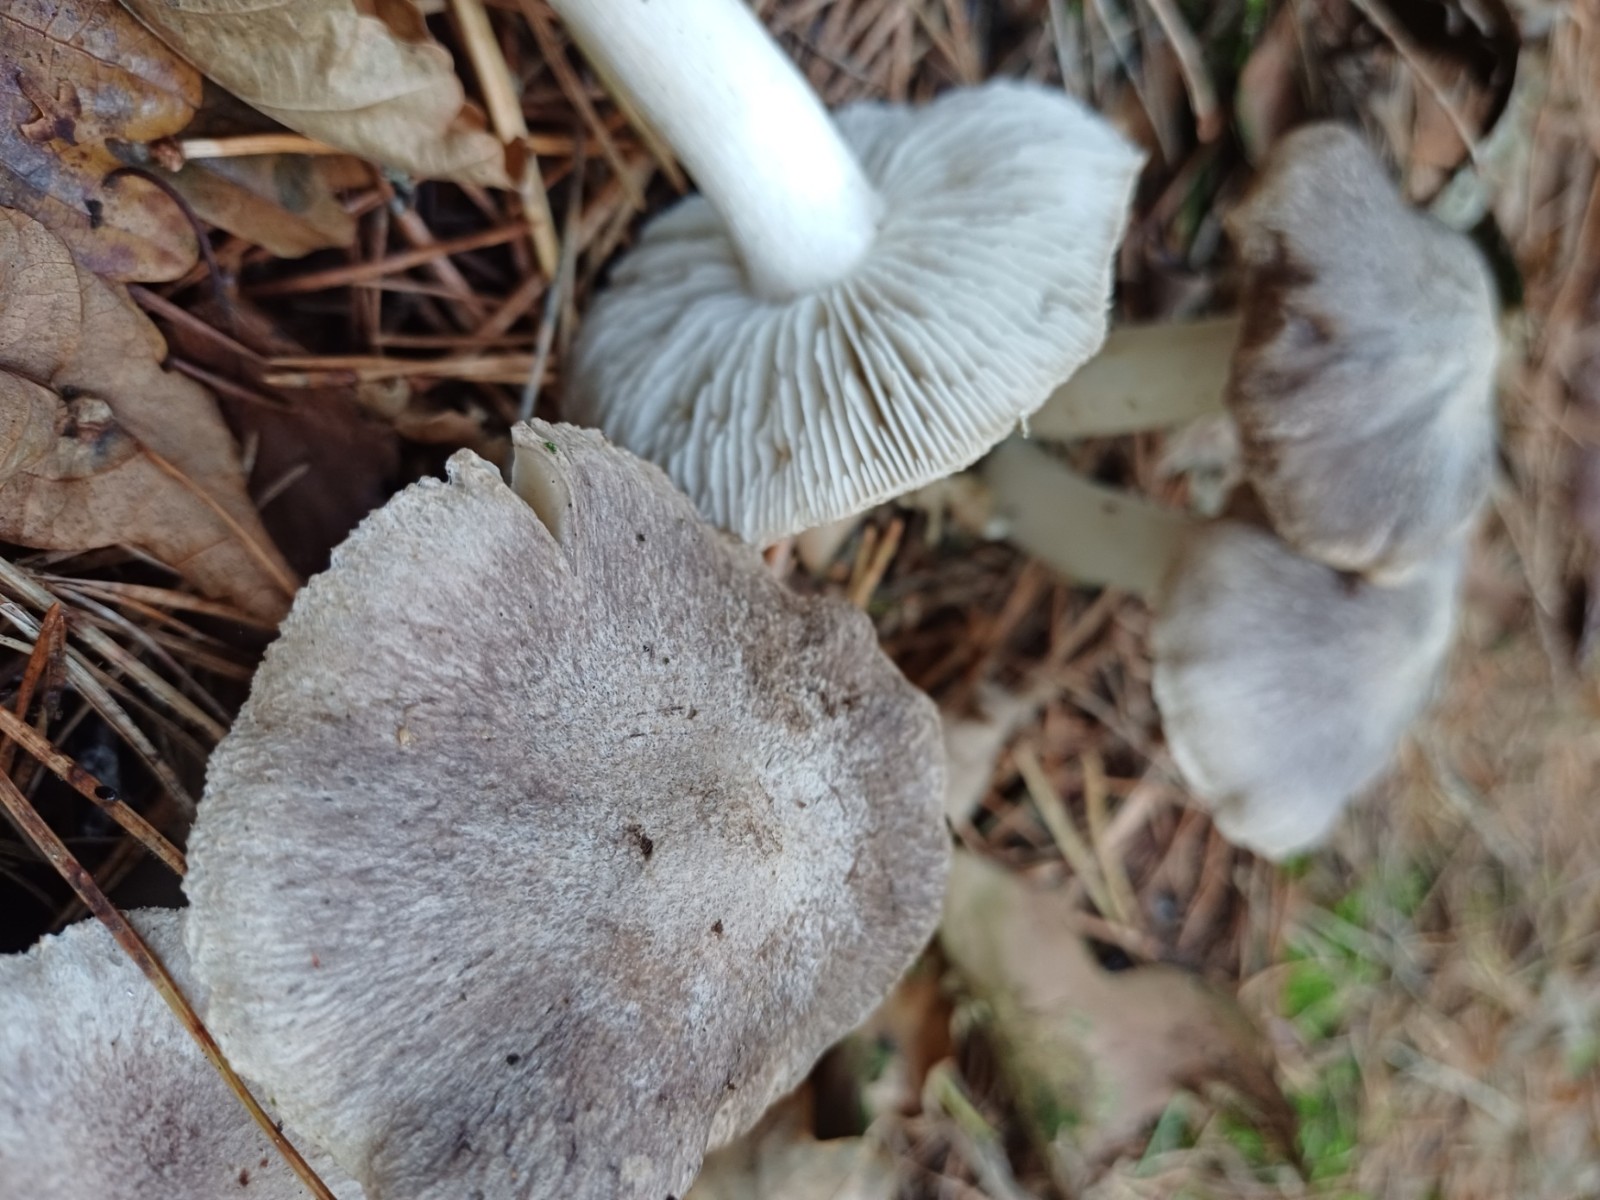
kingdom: Fungi
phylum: Basidiomycota
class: Agaricomycetes
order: Agaricales
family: Tricholomataceae
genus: Tricholoma
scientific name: Tricholoma terreum
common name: jordfarvet ridderhat
